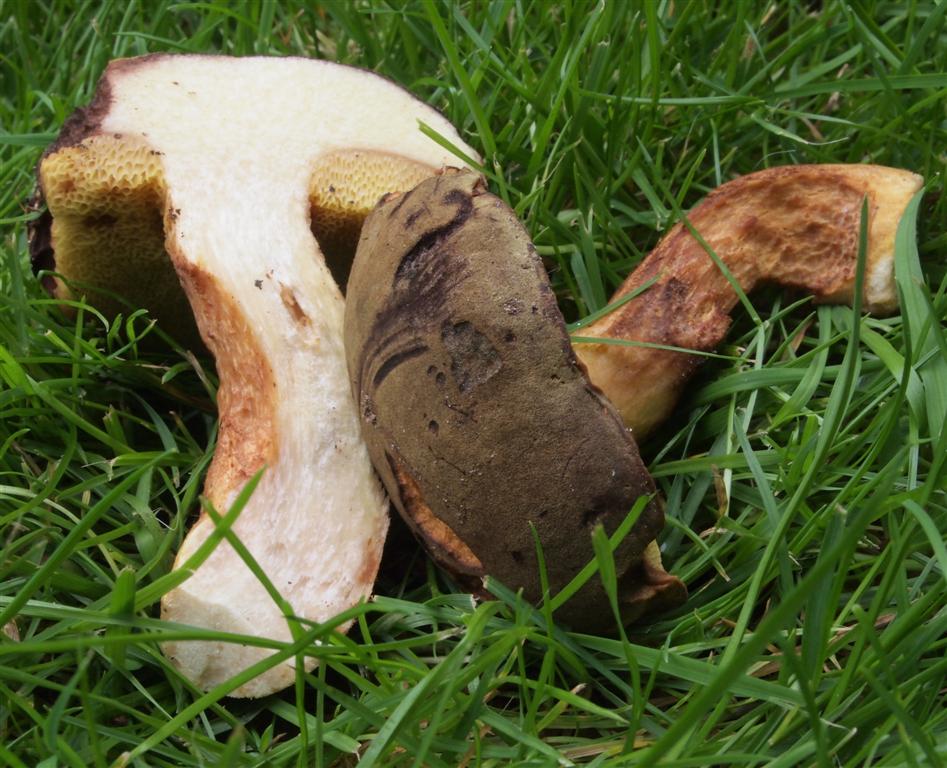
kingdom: Fungi
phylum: Basidiomycota
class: Agaricomycetes
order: Boletales
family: Boletaceae
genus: Xerocomus
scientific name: Xerocomus ferrugineus
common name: vaskeskinds-rørhat
